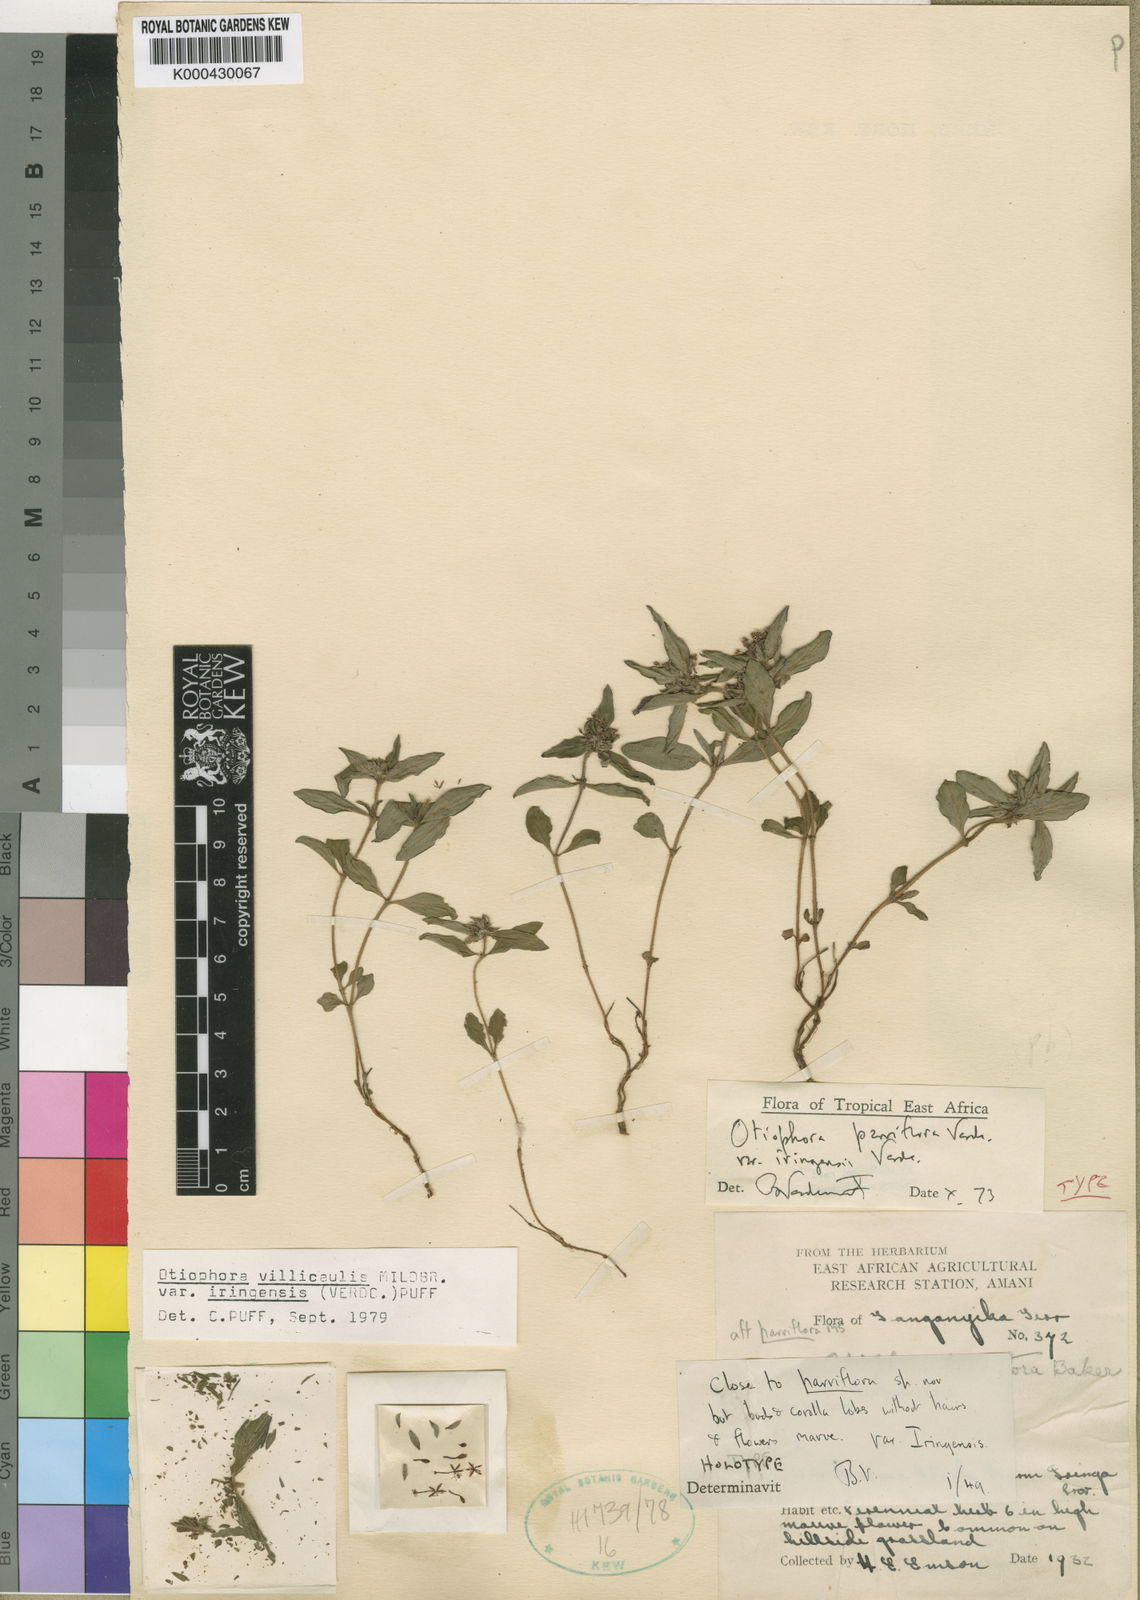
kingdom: Plantae
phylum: Tracheophyta
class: Magnoliopsida
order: Gentianales
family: Rubiaceae
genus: Otiophora
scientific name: Otiophora parviflora
